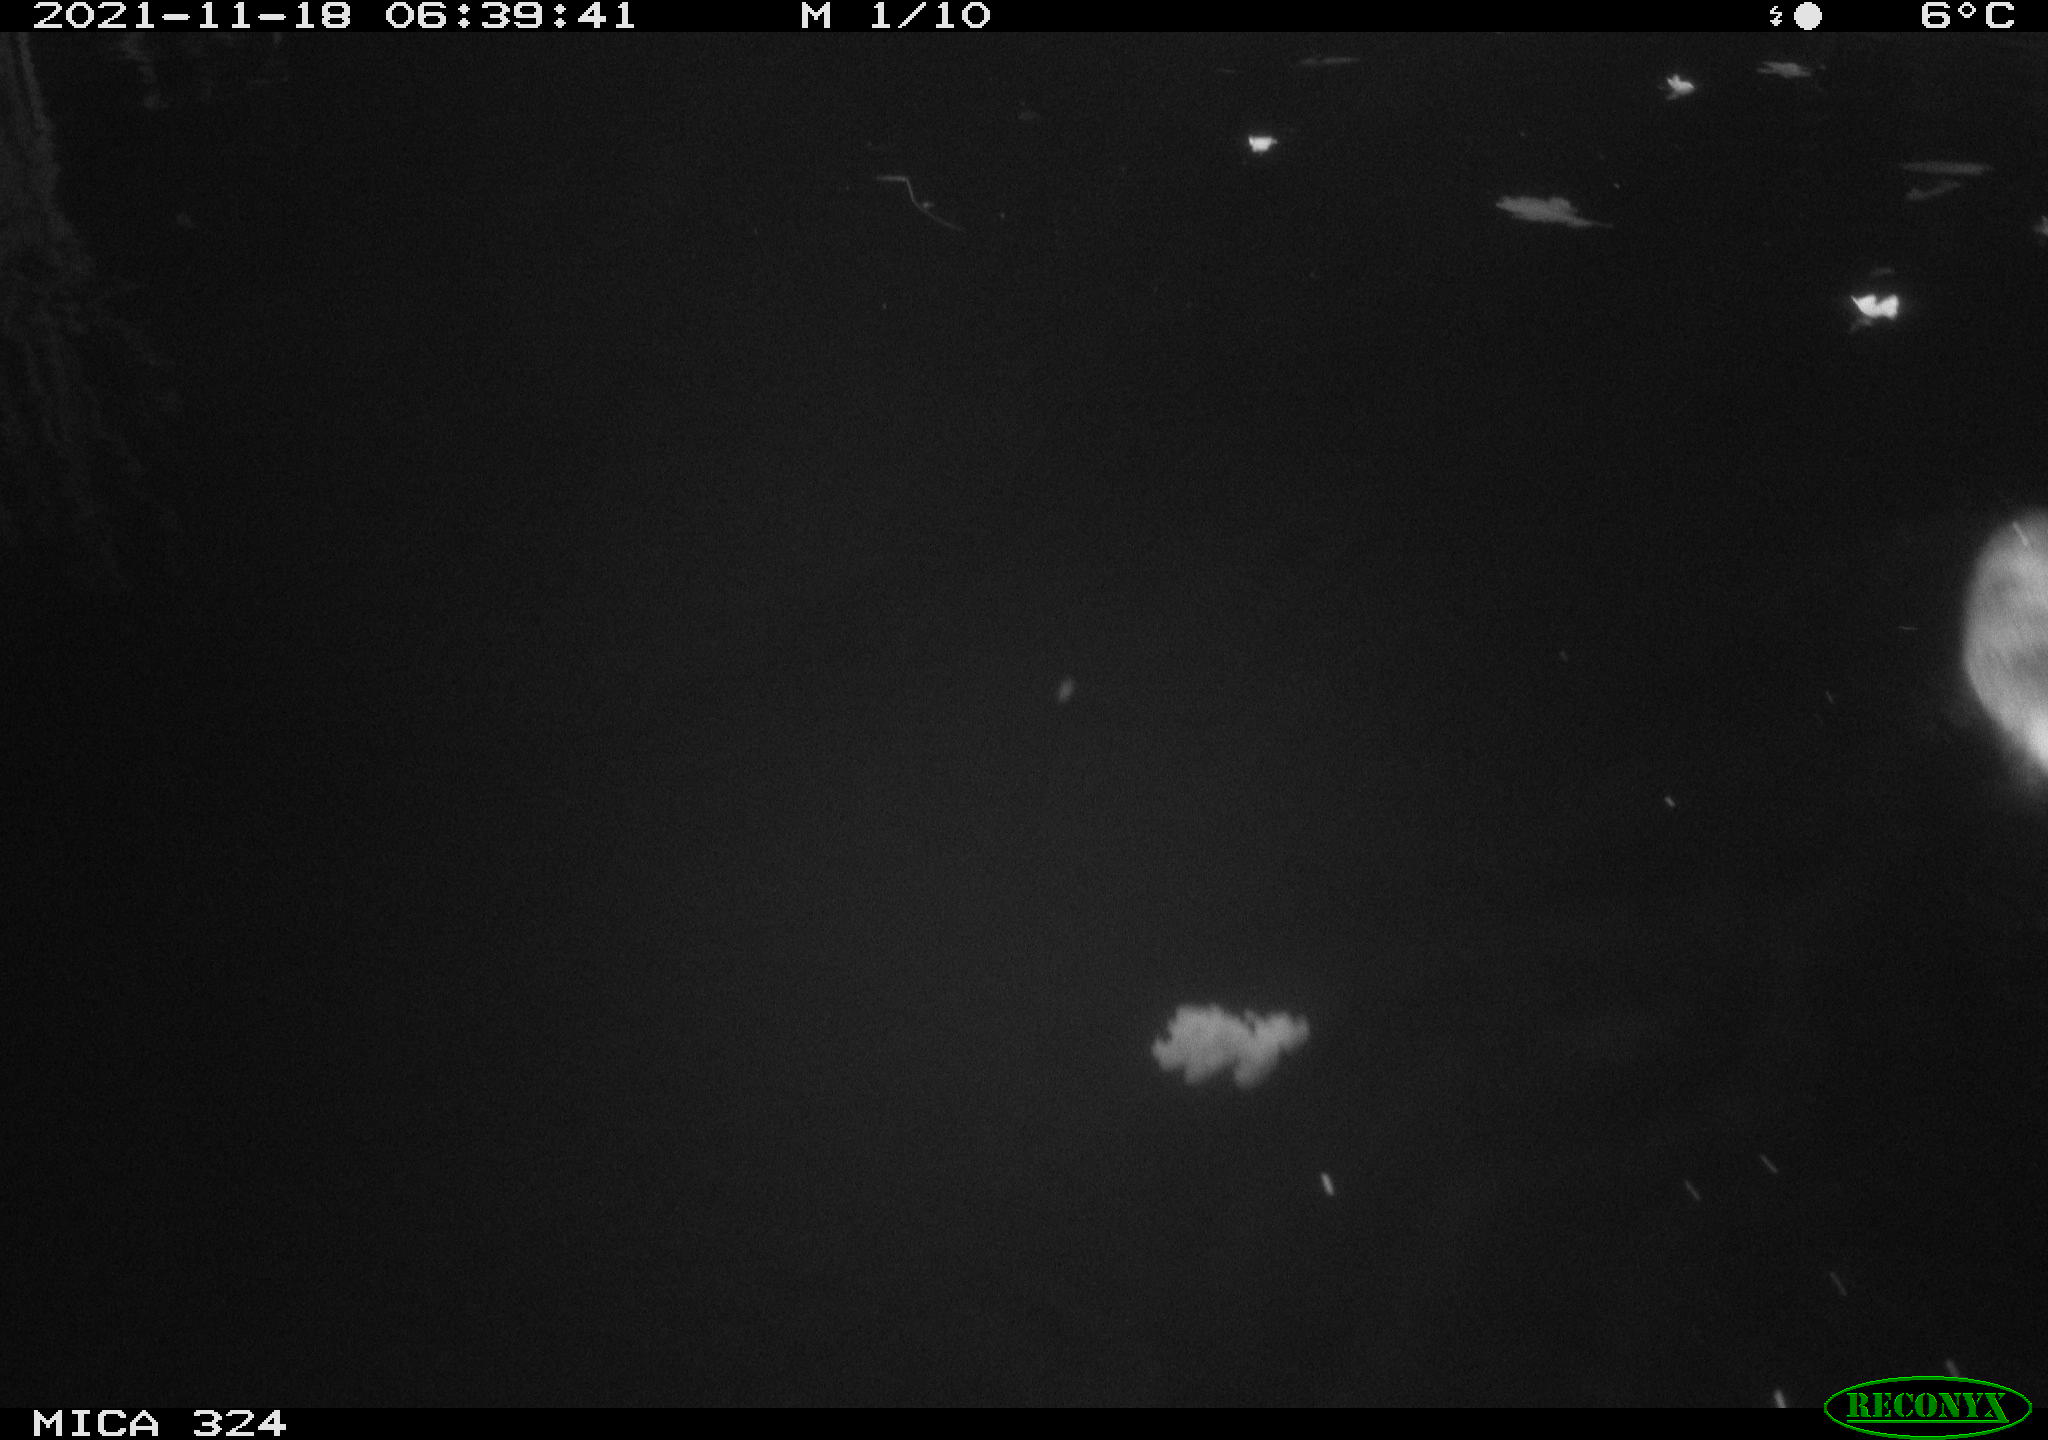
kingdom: Animalia
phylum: Chordata
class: Mammalia
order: Rodentia
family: Cricetidae
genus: Ondatra
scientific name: Ondatra zibethicus
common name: Muskrat
